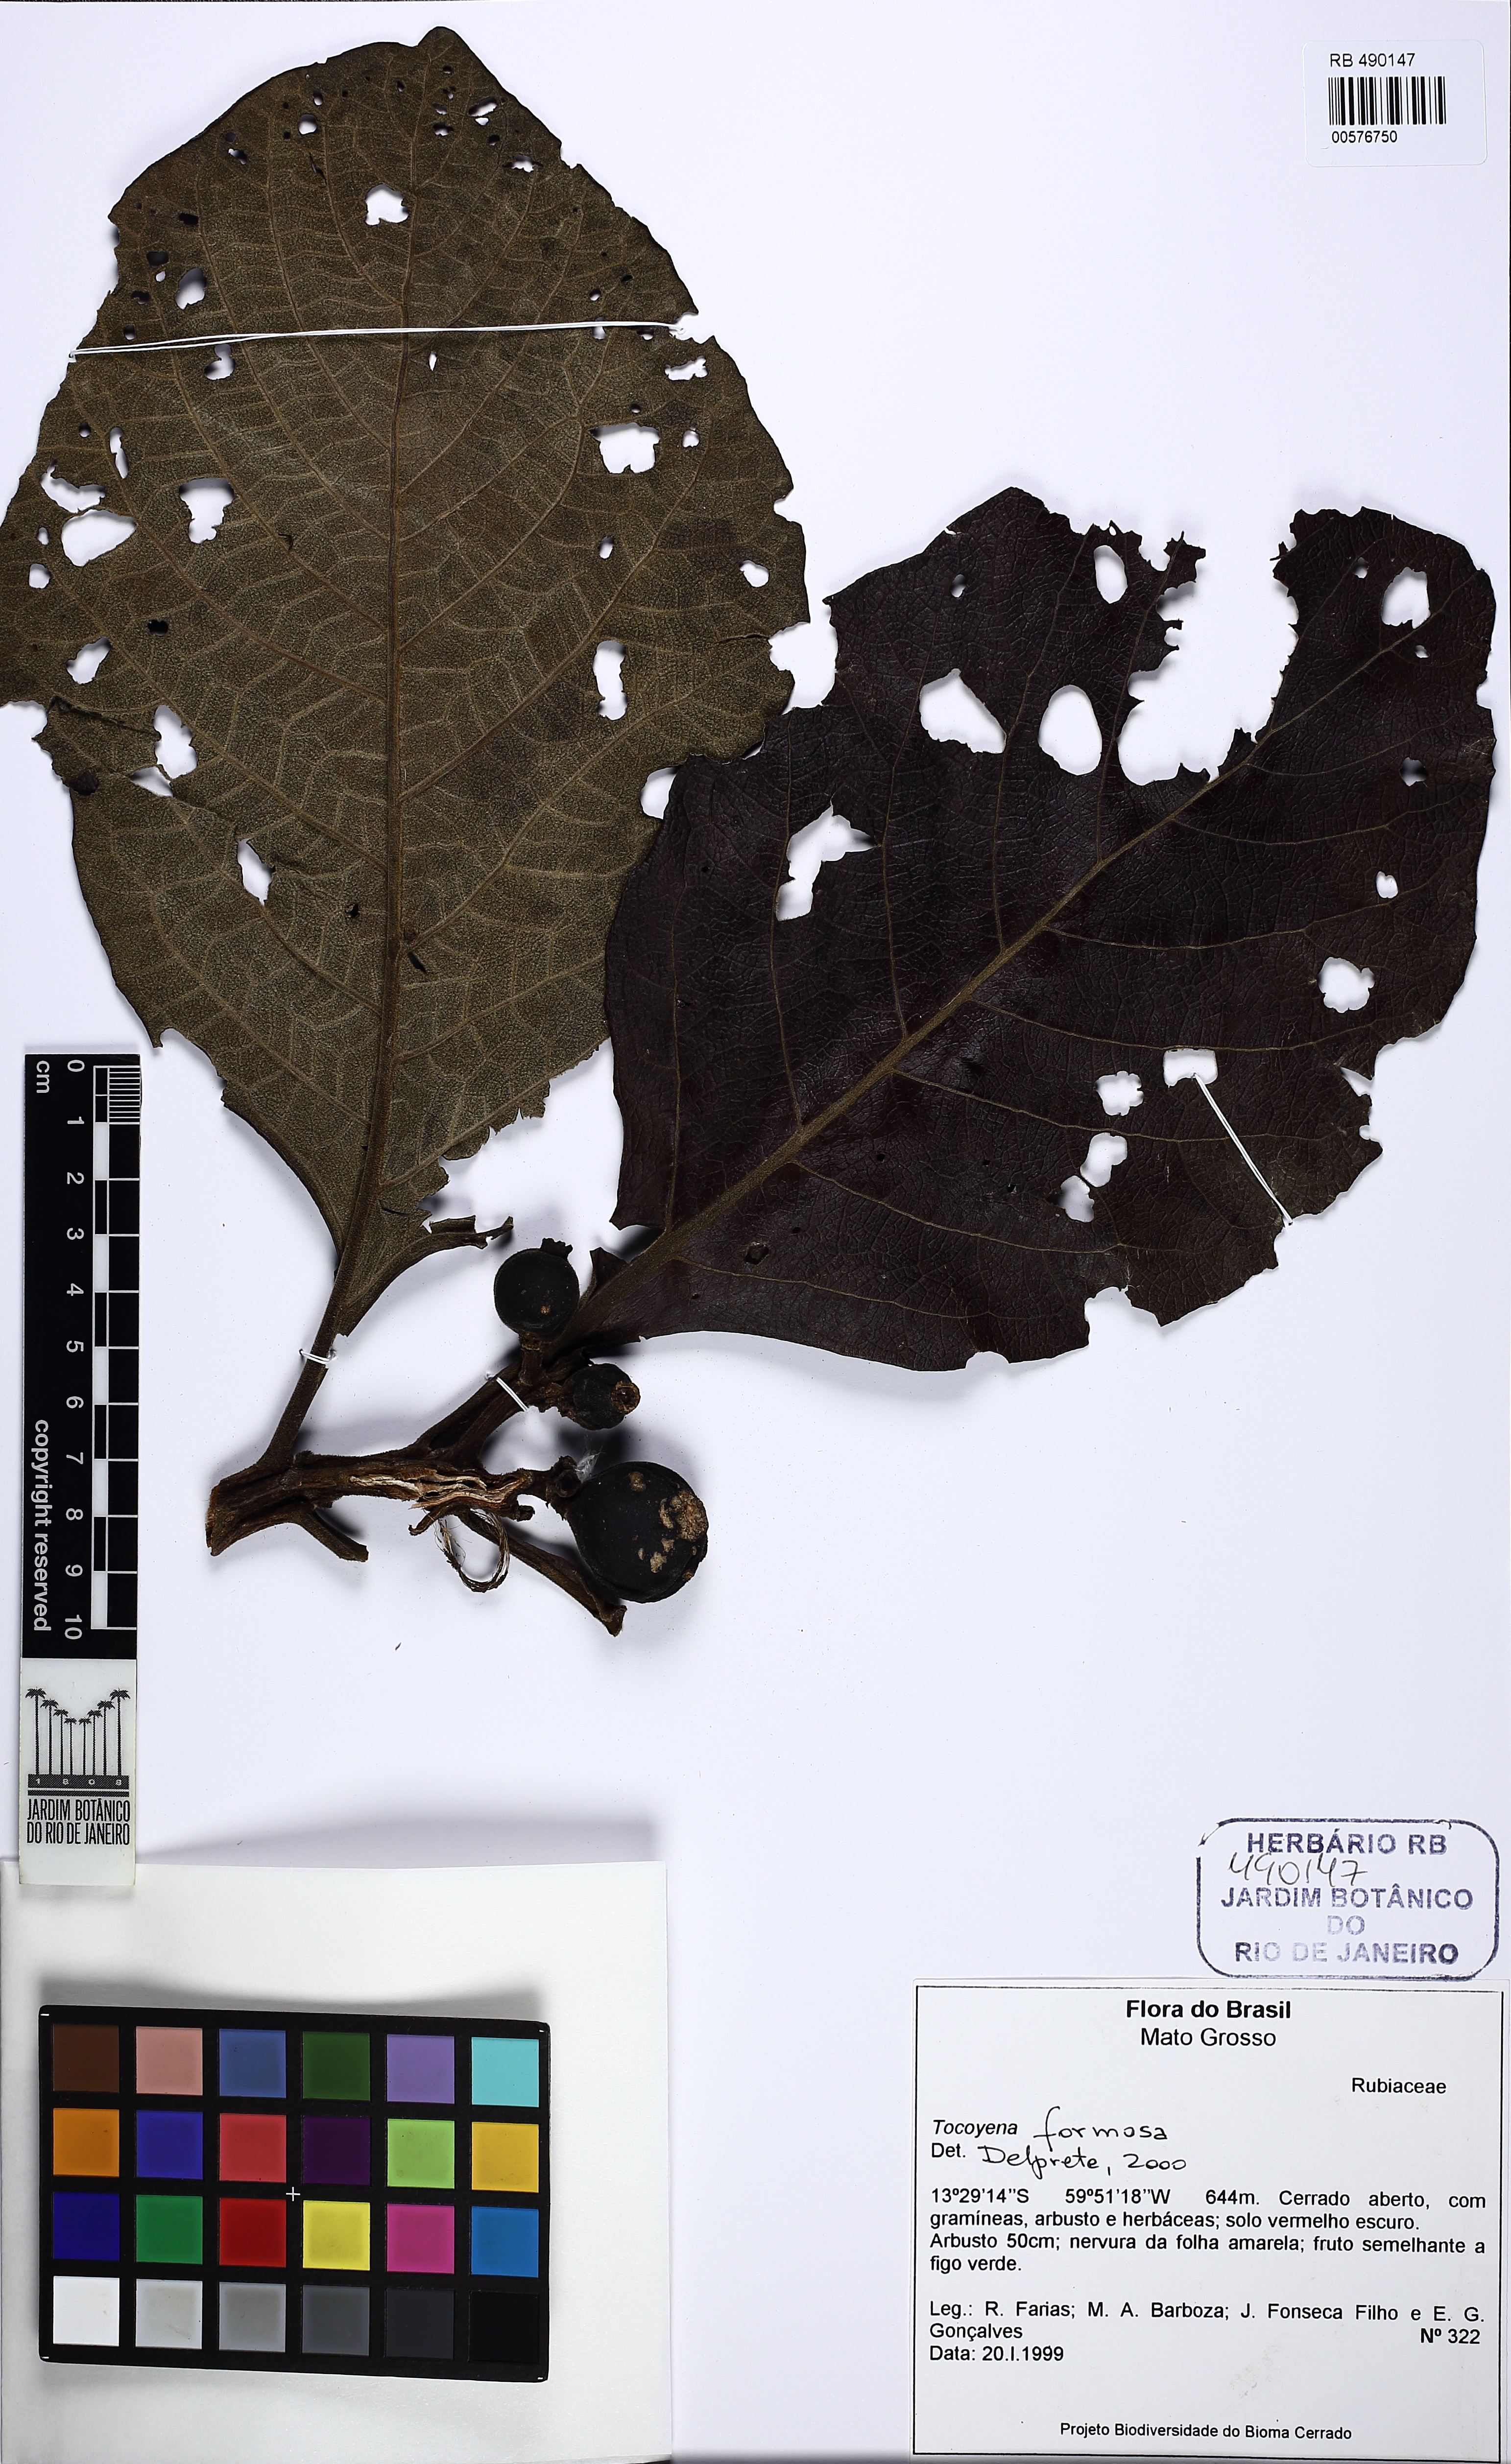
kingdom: Plantae
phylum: Tracheophyta
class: Magnoliopsida
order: Gentianales
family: Rubiaceae
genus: Tocoyena
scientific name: Tocoyena formosa
